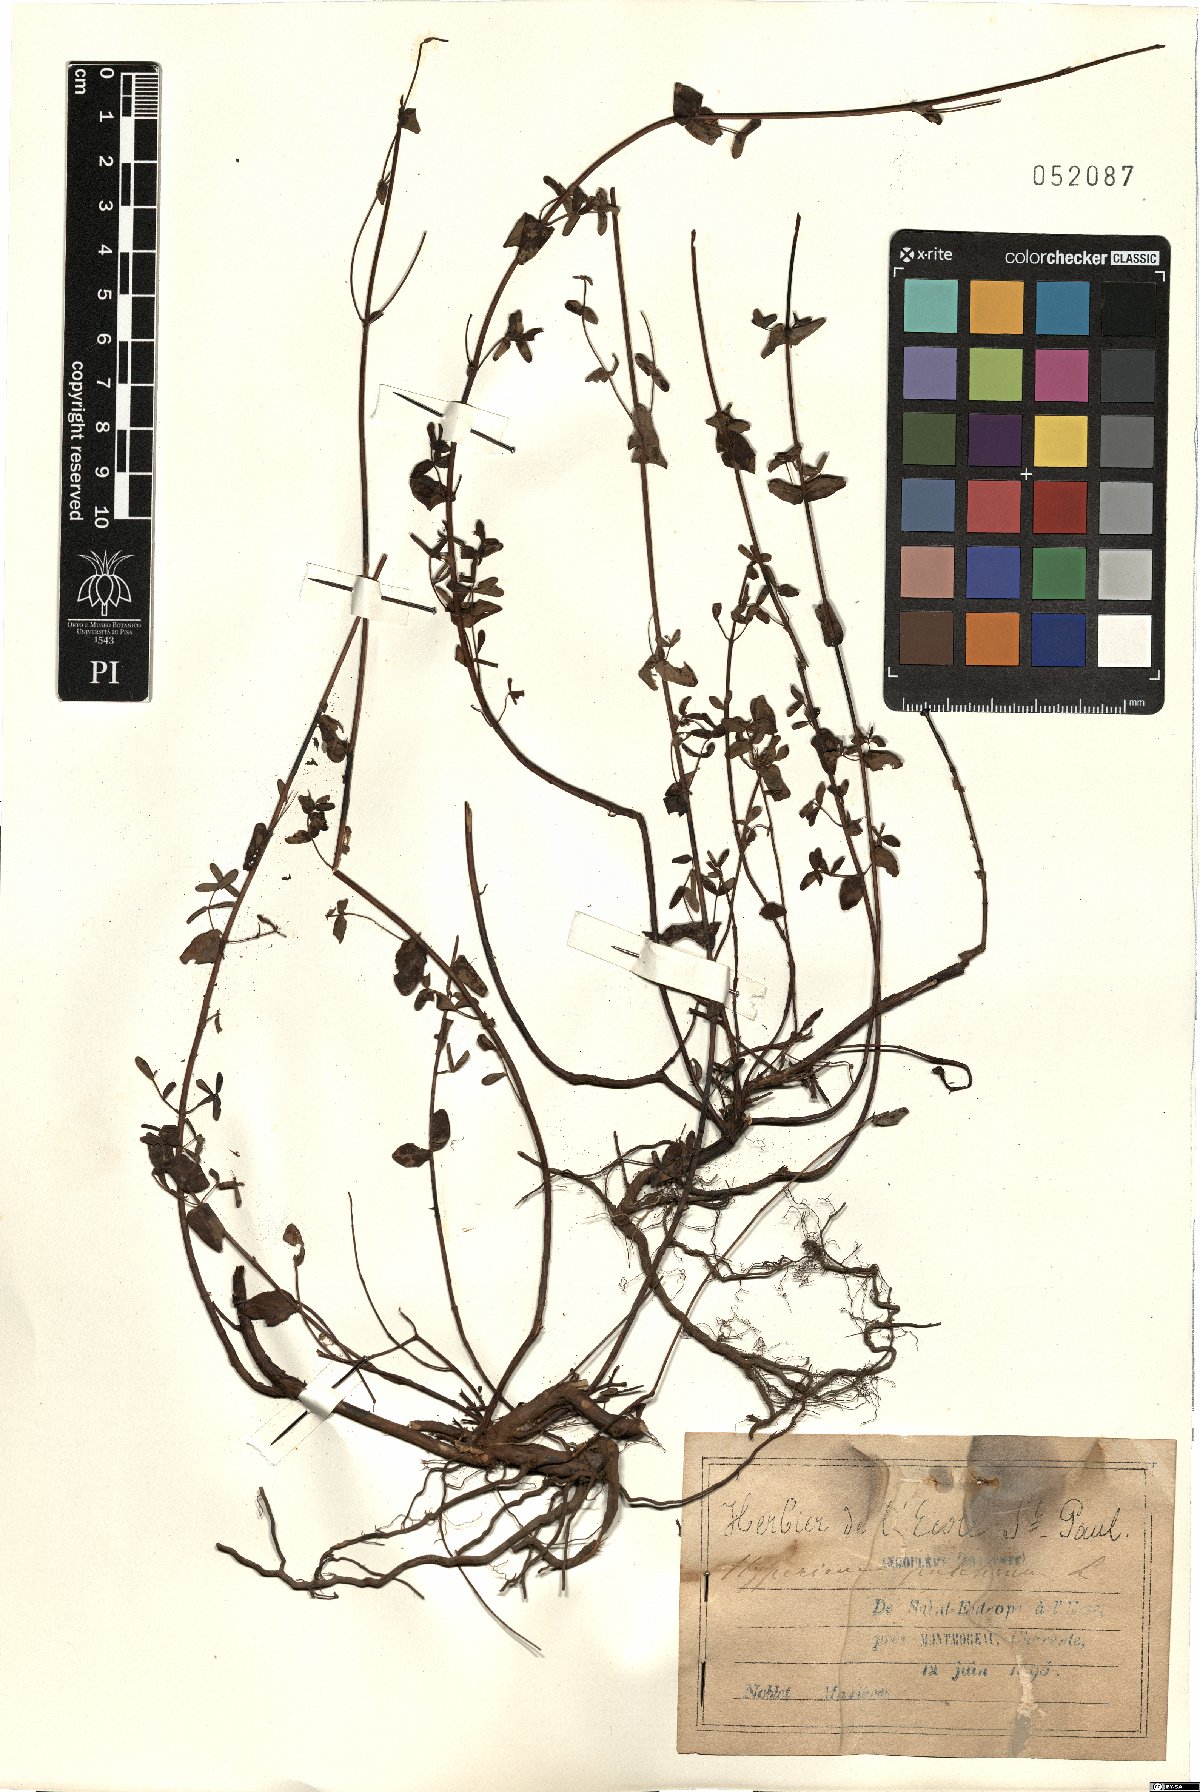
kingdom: Plantae
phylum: Tracheophyta
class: Magnoliopsida
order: Malpighiales
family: Hypericaceae
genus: Hypericum
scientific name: Hypericum pulchrum
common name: Slender st. john's-wort
